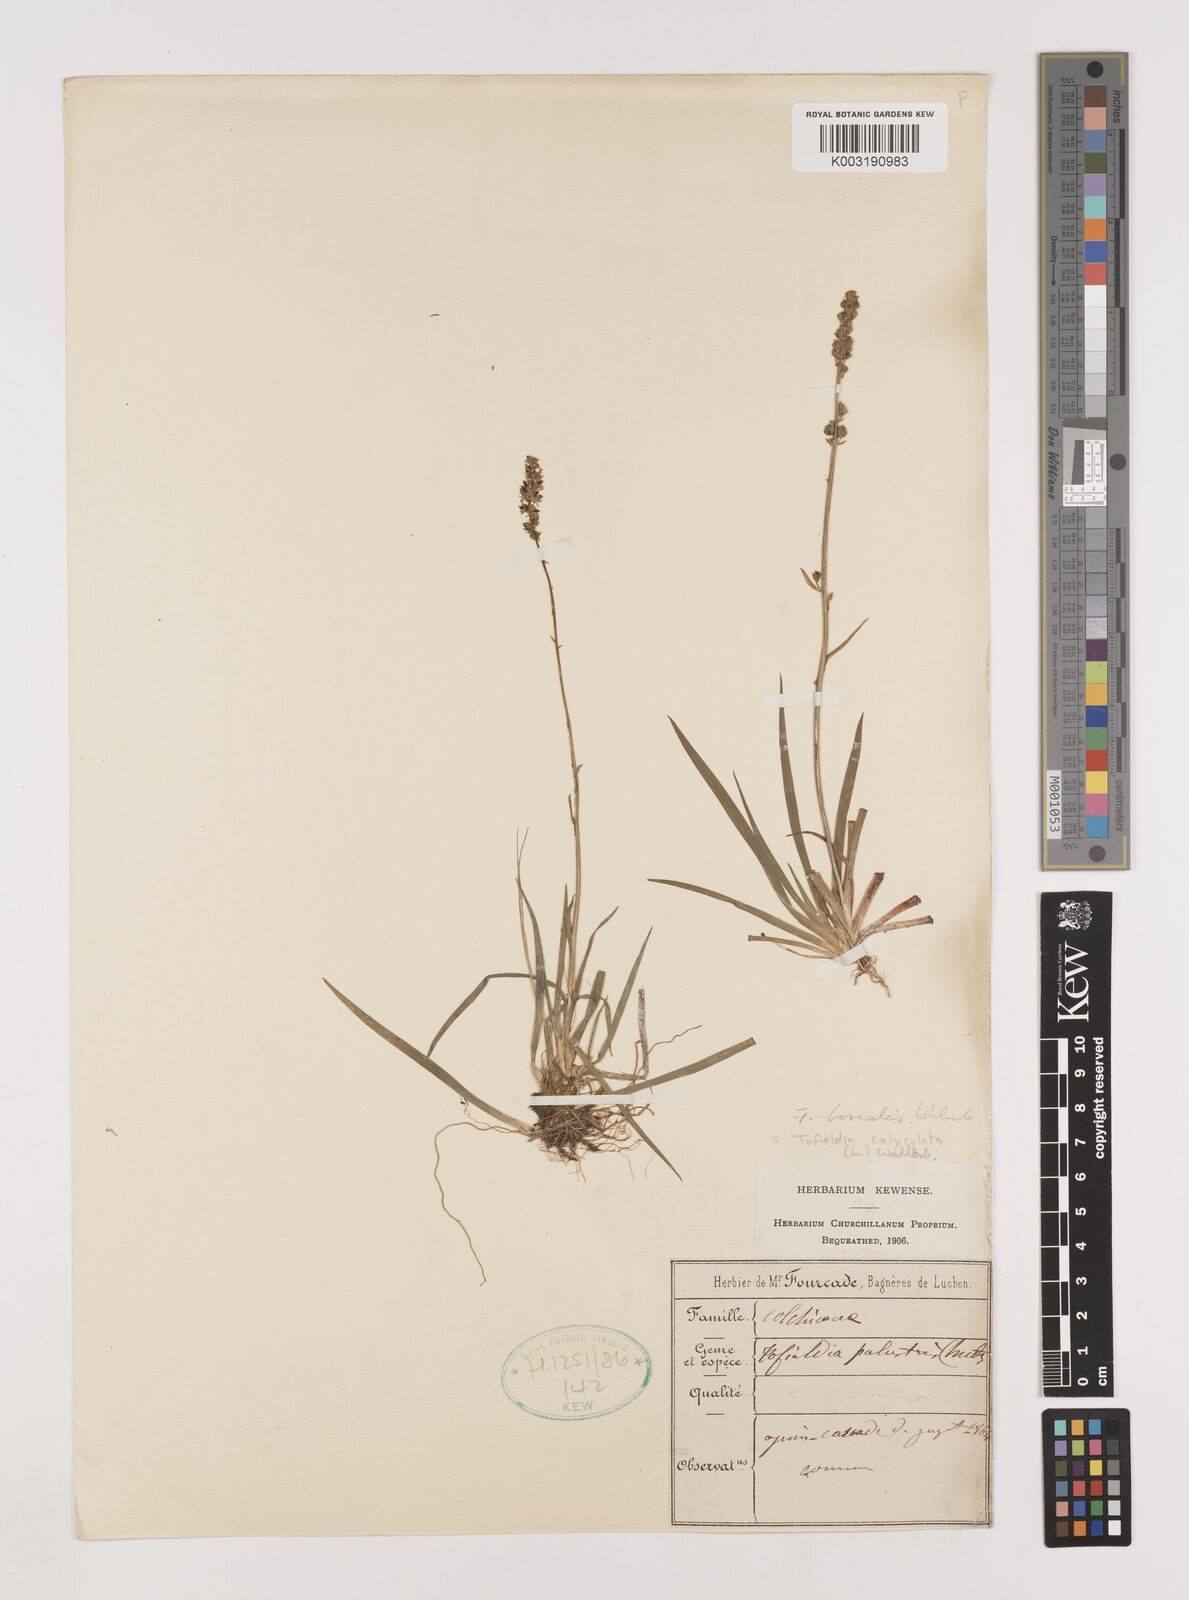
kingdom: Plantae
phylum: Tracheophyta
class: Liliopsida
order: Alismatales
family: Tofieldiaceae
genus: Tofieldia
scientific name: Tofieldia calyculata
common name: German-asphodel
